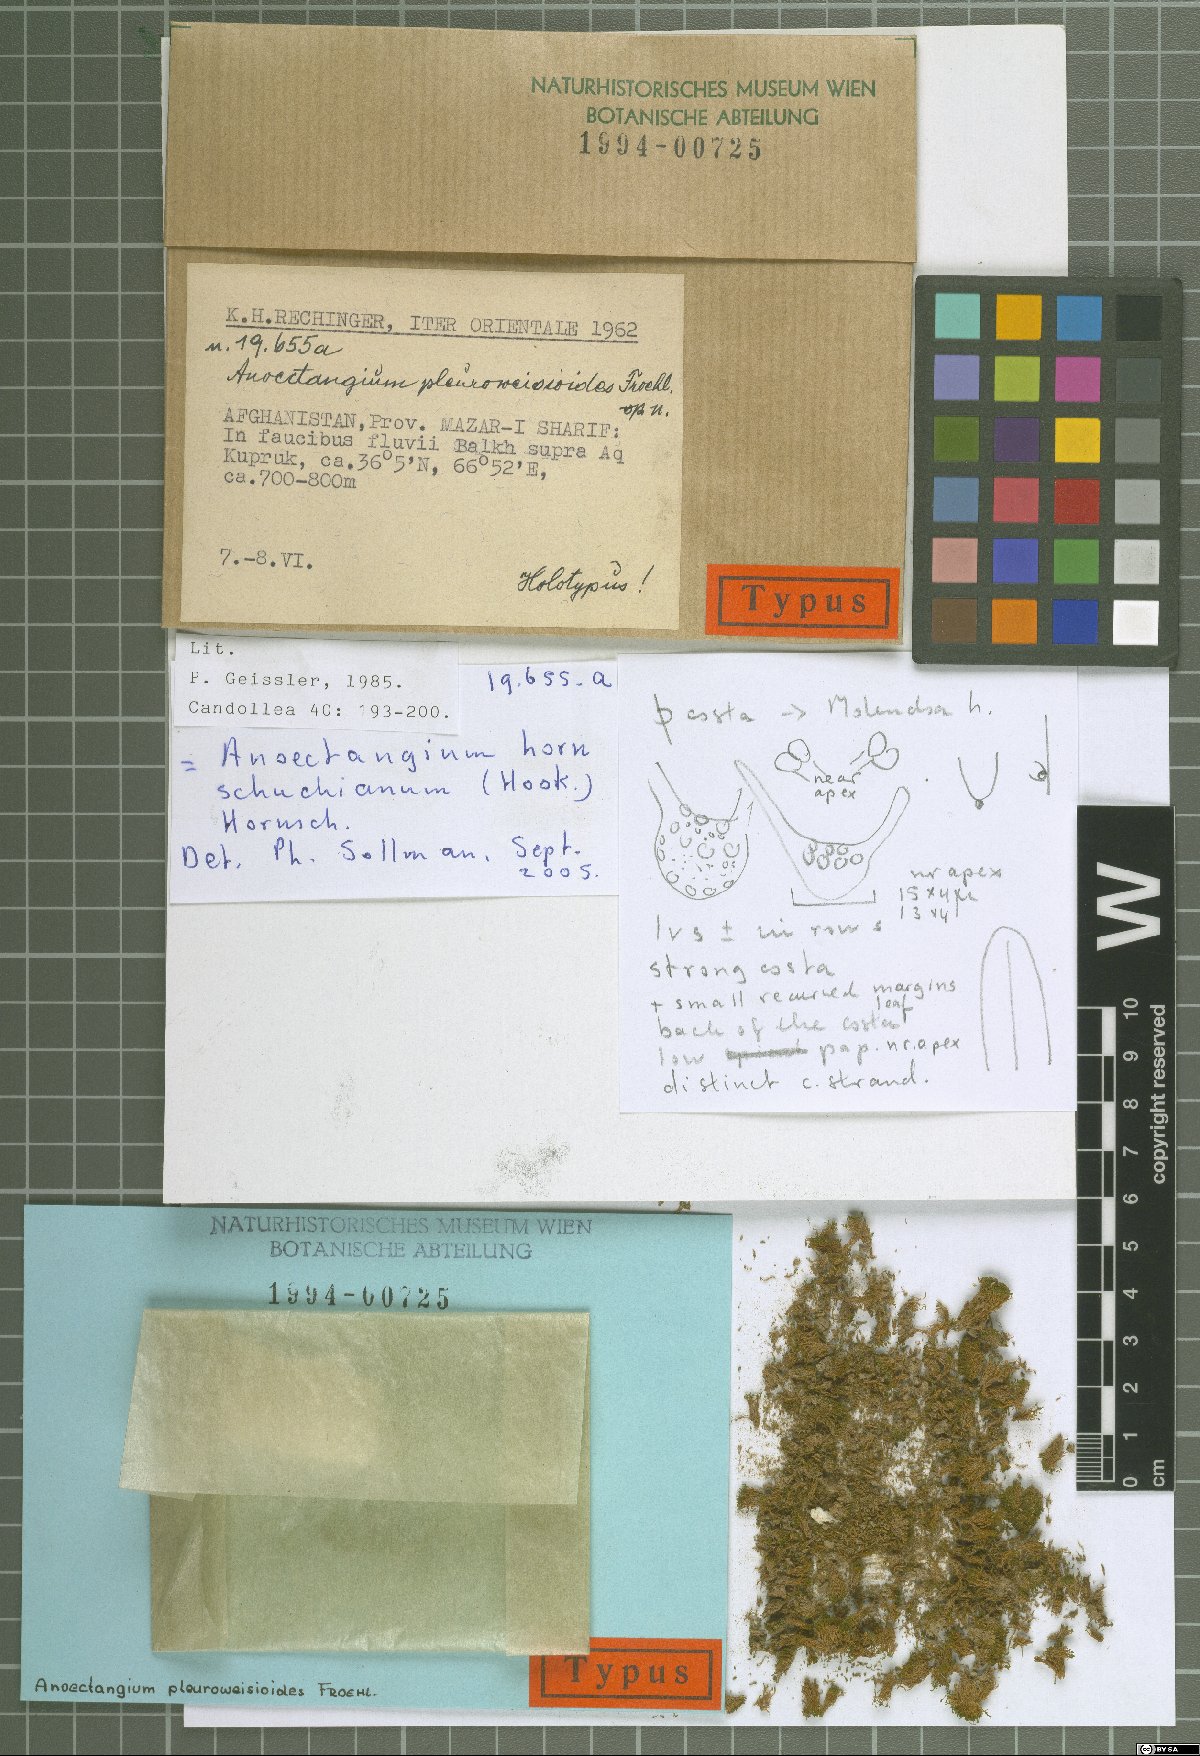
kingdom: Plantae
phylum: Bryophyta
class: Bryopsida
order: Pottiales
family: Pottiaceae
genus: Molendoa
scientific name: Molendoa hornschuchiana
